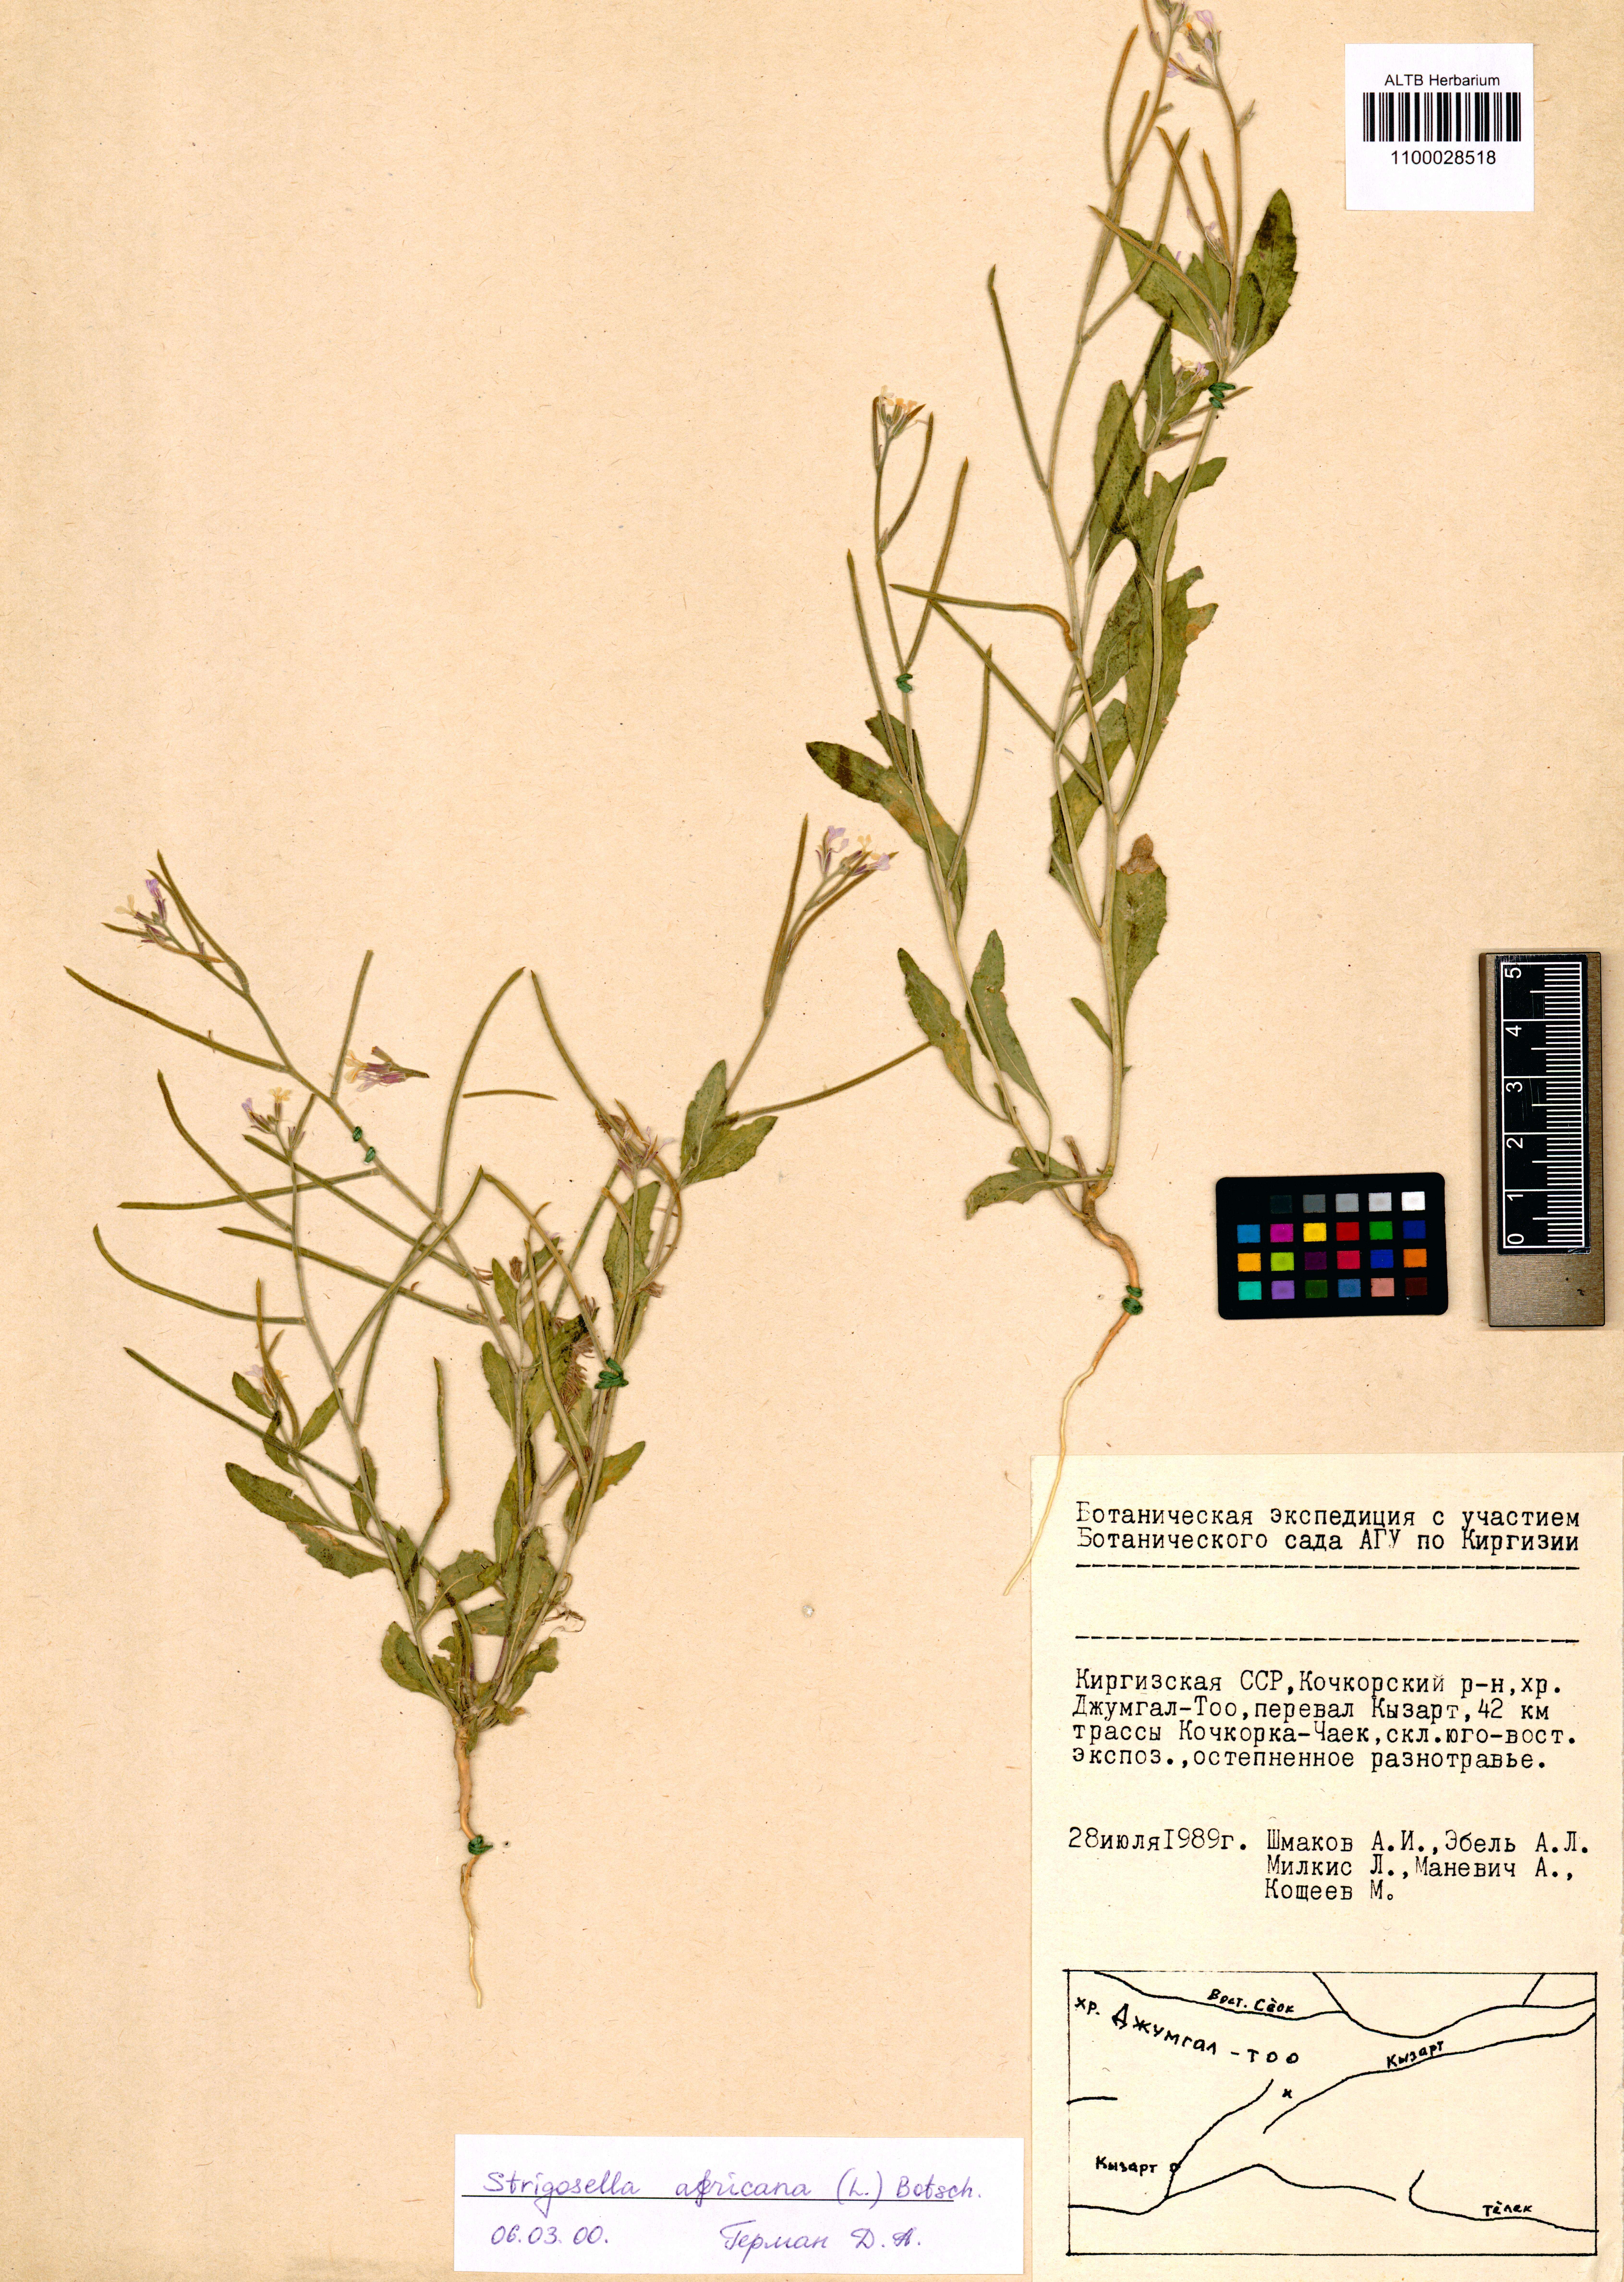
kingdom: Plantae
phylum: Tracheophyta
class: Magnoliopsida
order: Brassicales
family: Brassicaceae
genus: Strigosella
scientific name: Strigosella africana
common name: African mustard
